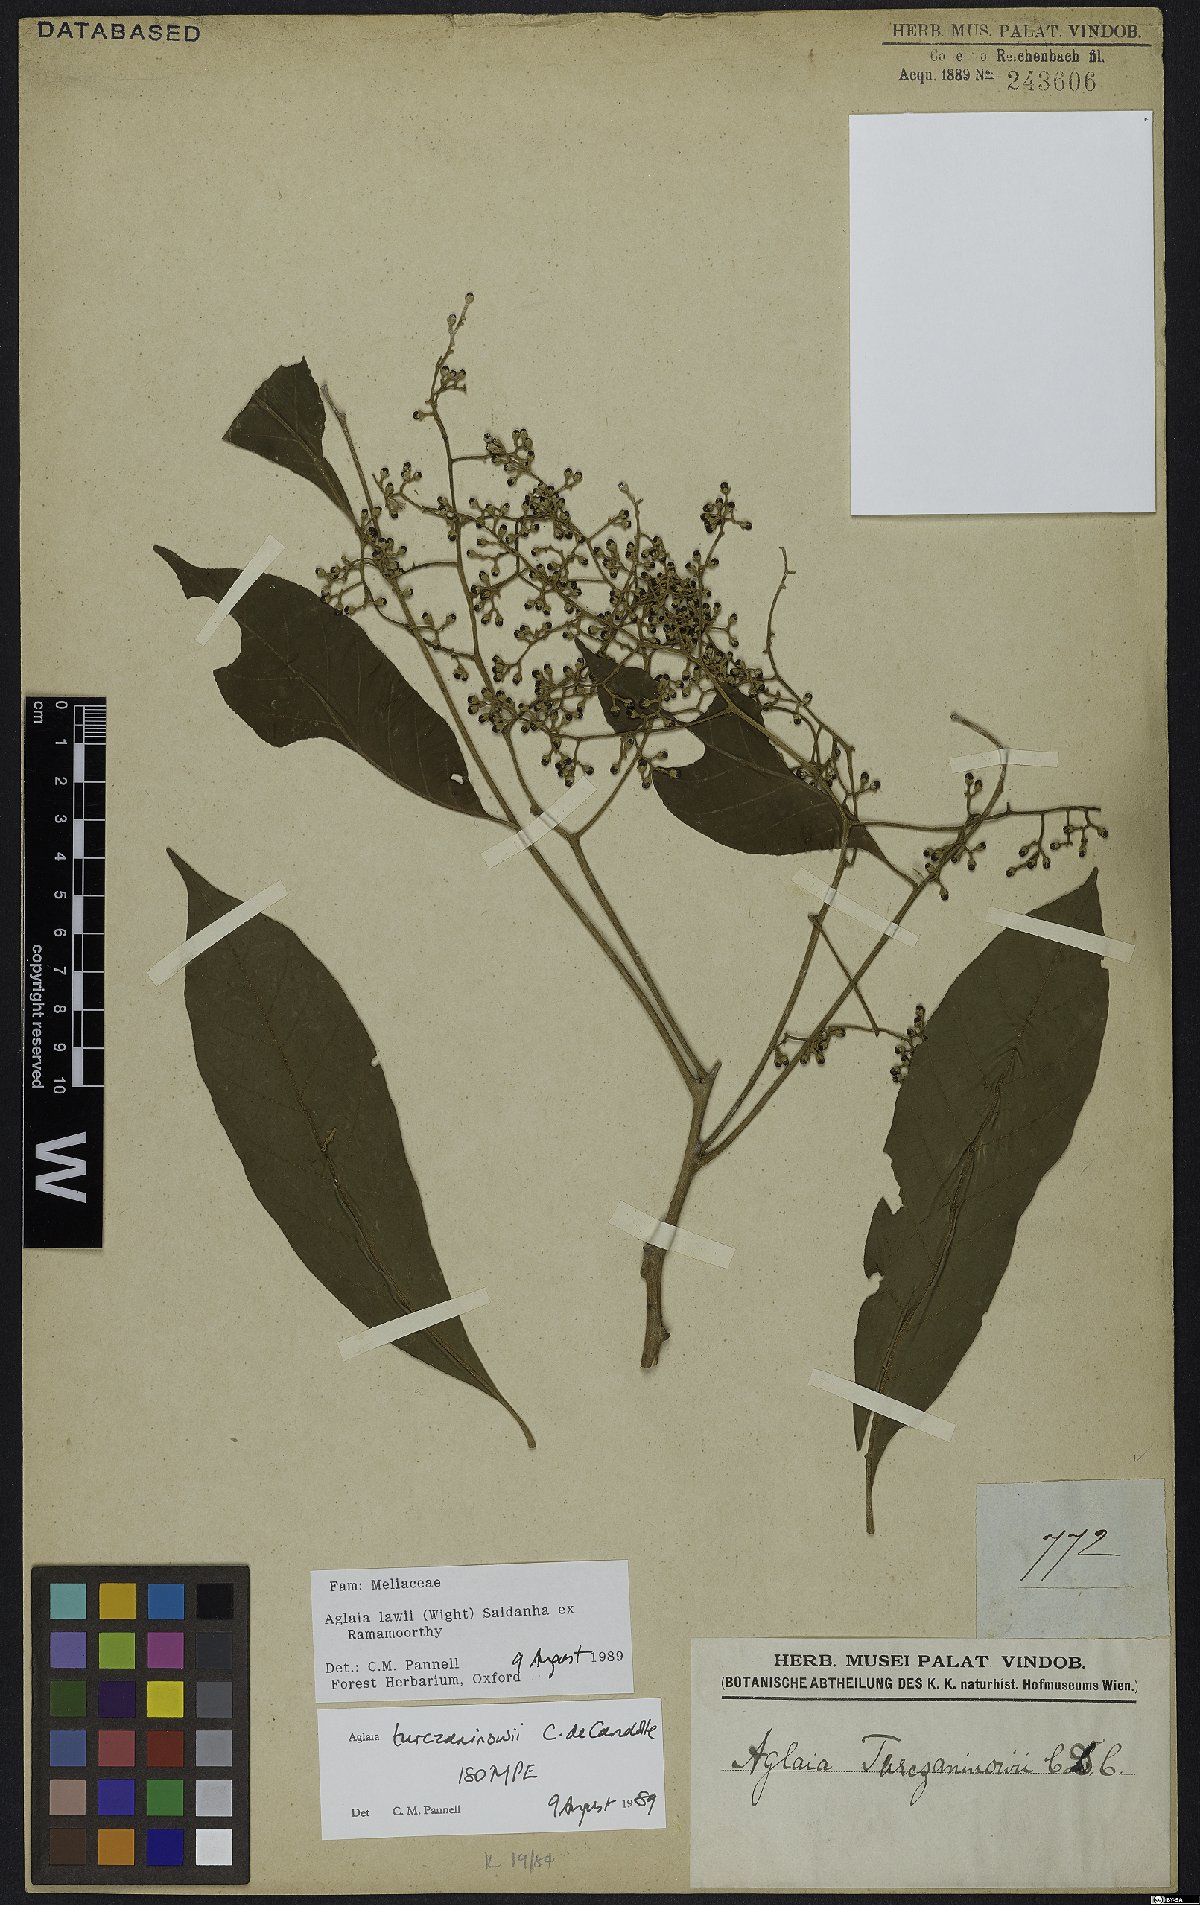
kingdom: Plantae
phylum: Tracheophyta
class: Magnoliopsida
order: Sapindales
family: Meliaceae
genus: Aglaia
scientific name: Aglaia lawii
